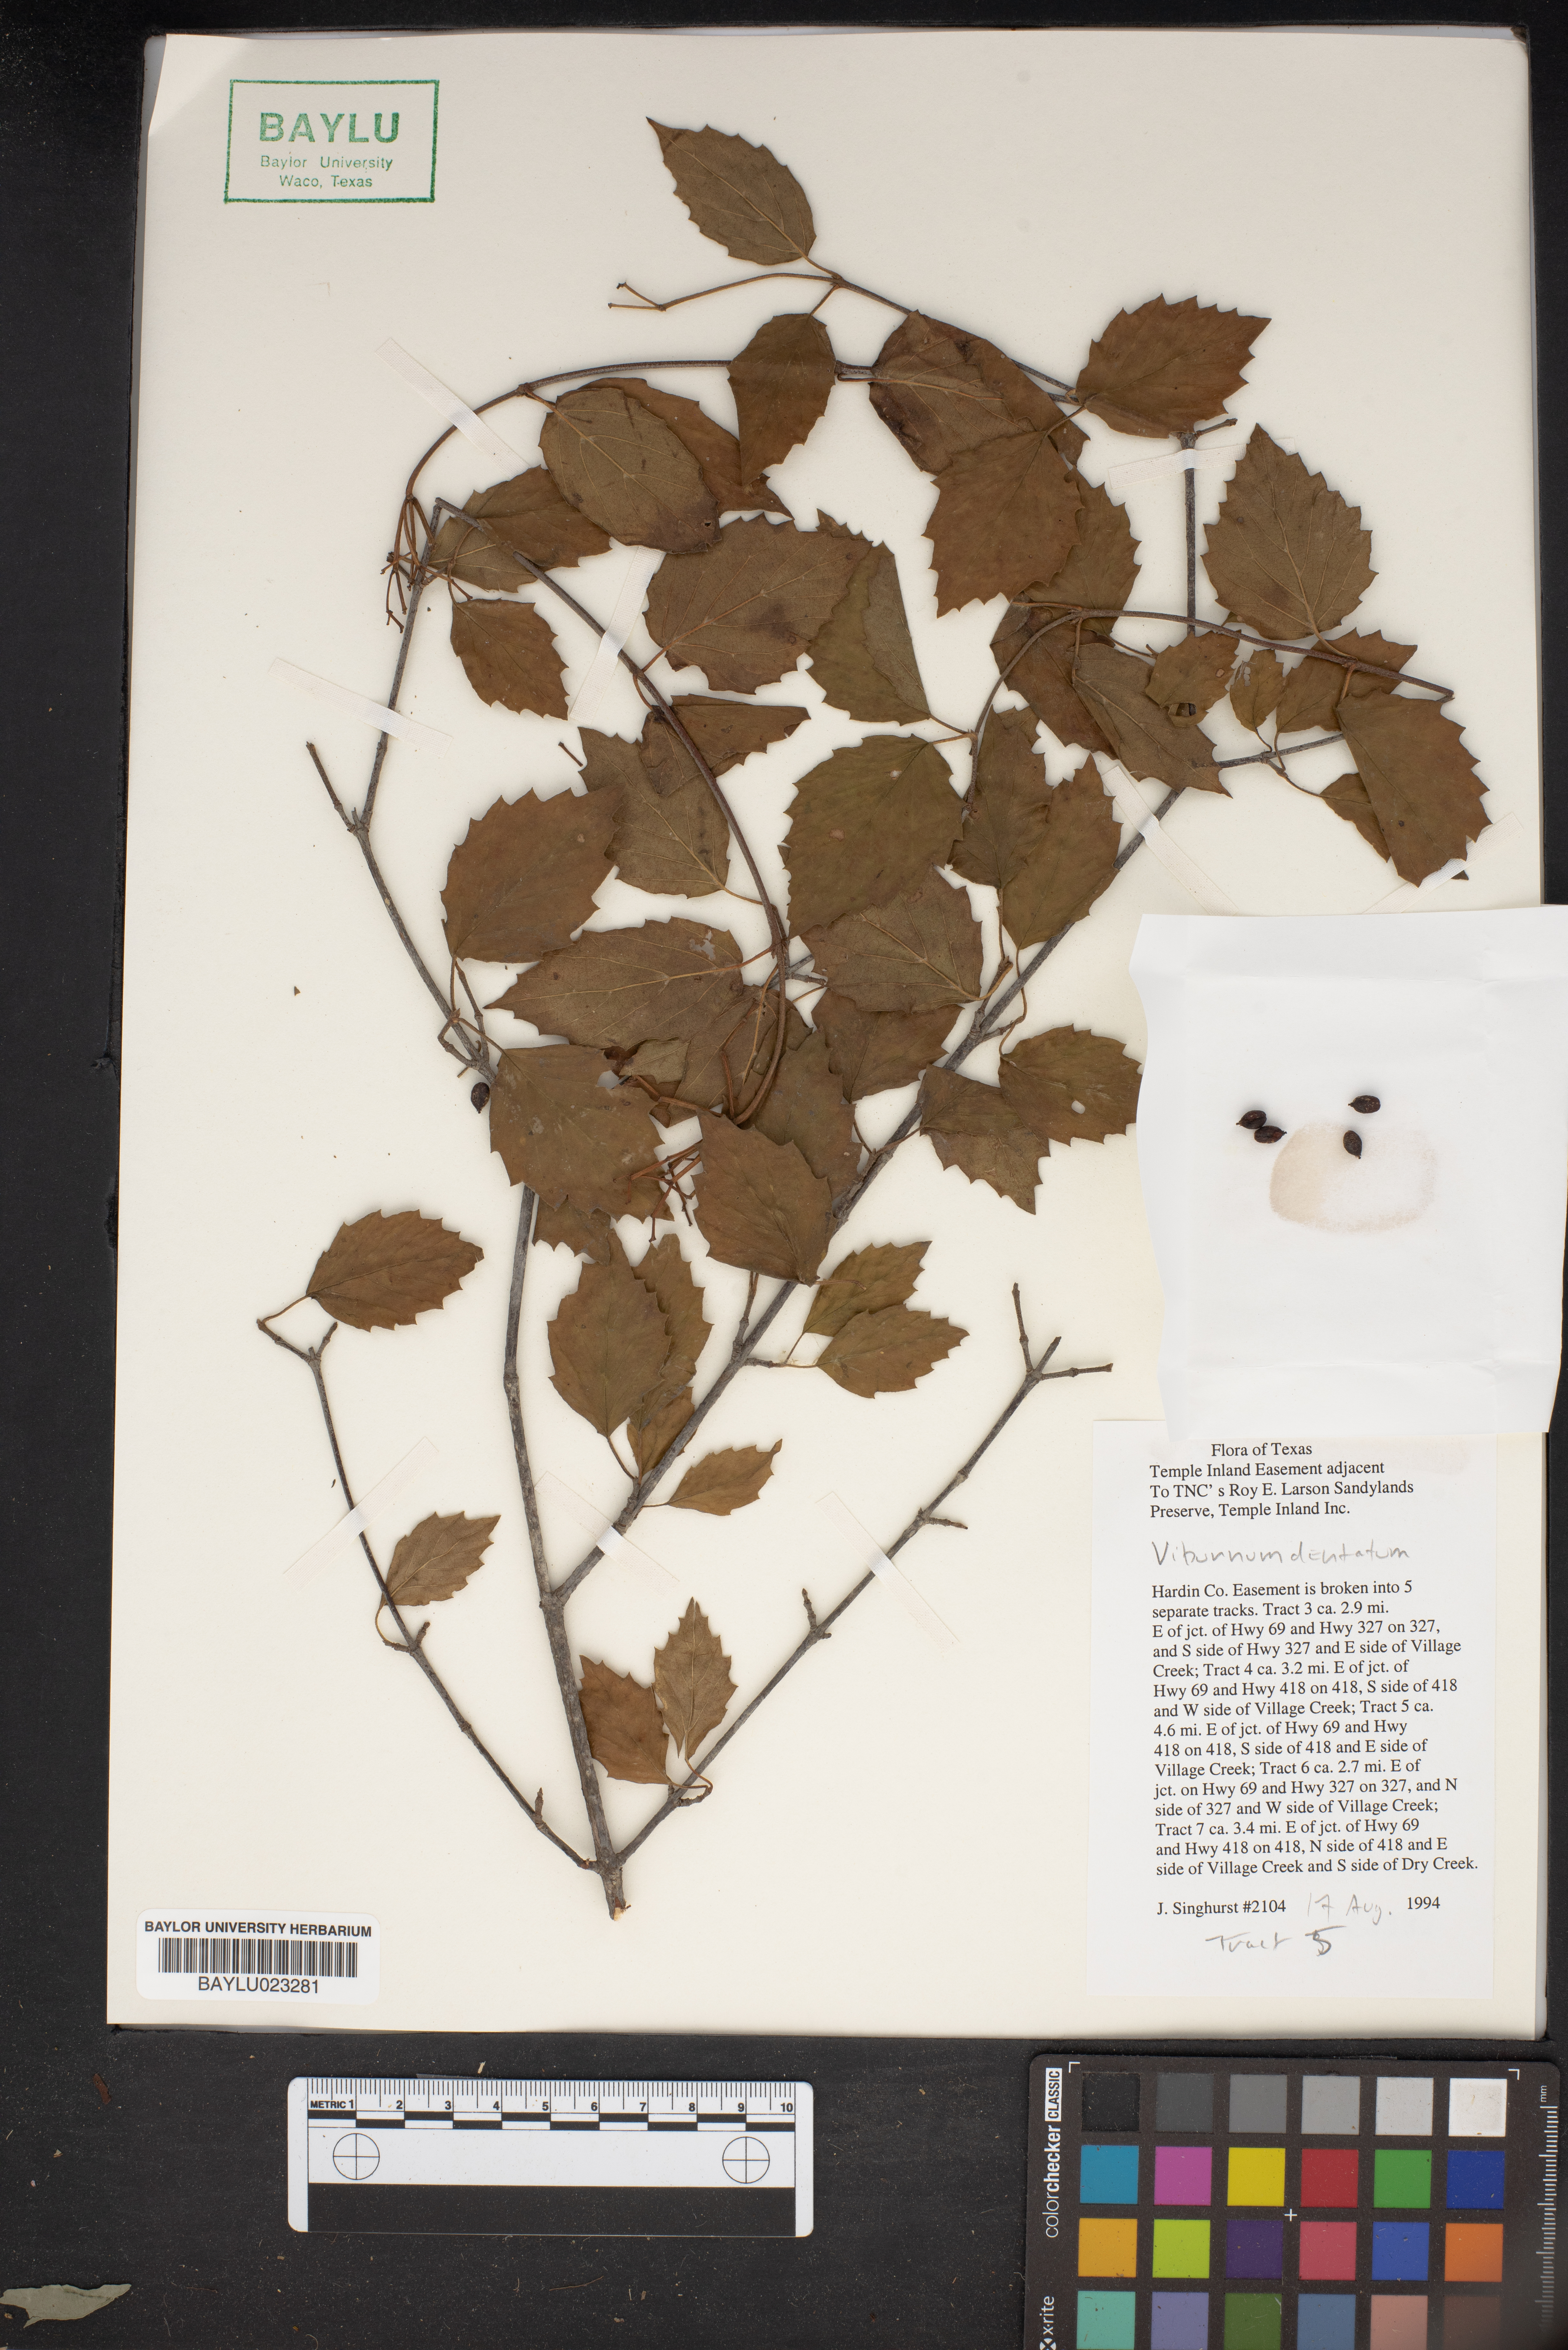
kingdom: Plantae
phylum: Tracheophyta
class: Magnoliopsida
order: Dipsacales
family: Viburnaceae
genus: Viburnum
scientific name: Viburnum dentatum
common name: Arrow-wood
